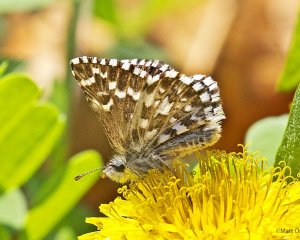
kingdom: Animalia
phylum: Arthropoda
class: Insecta
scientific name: Insecta
